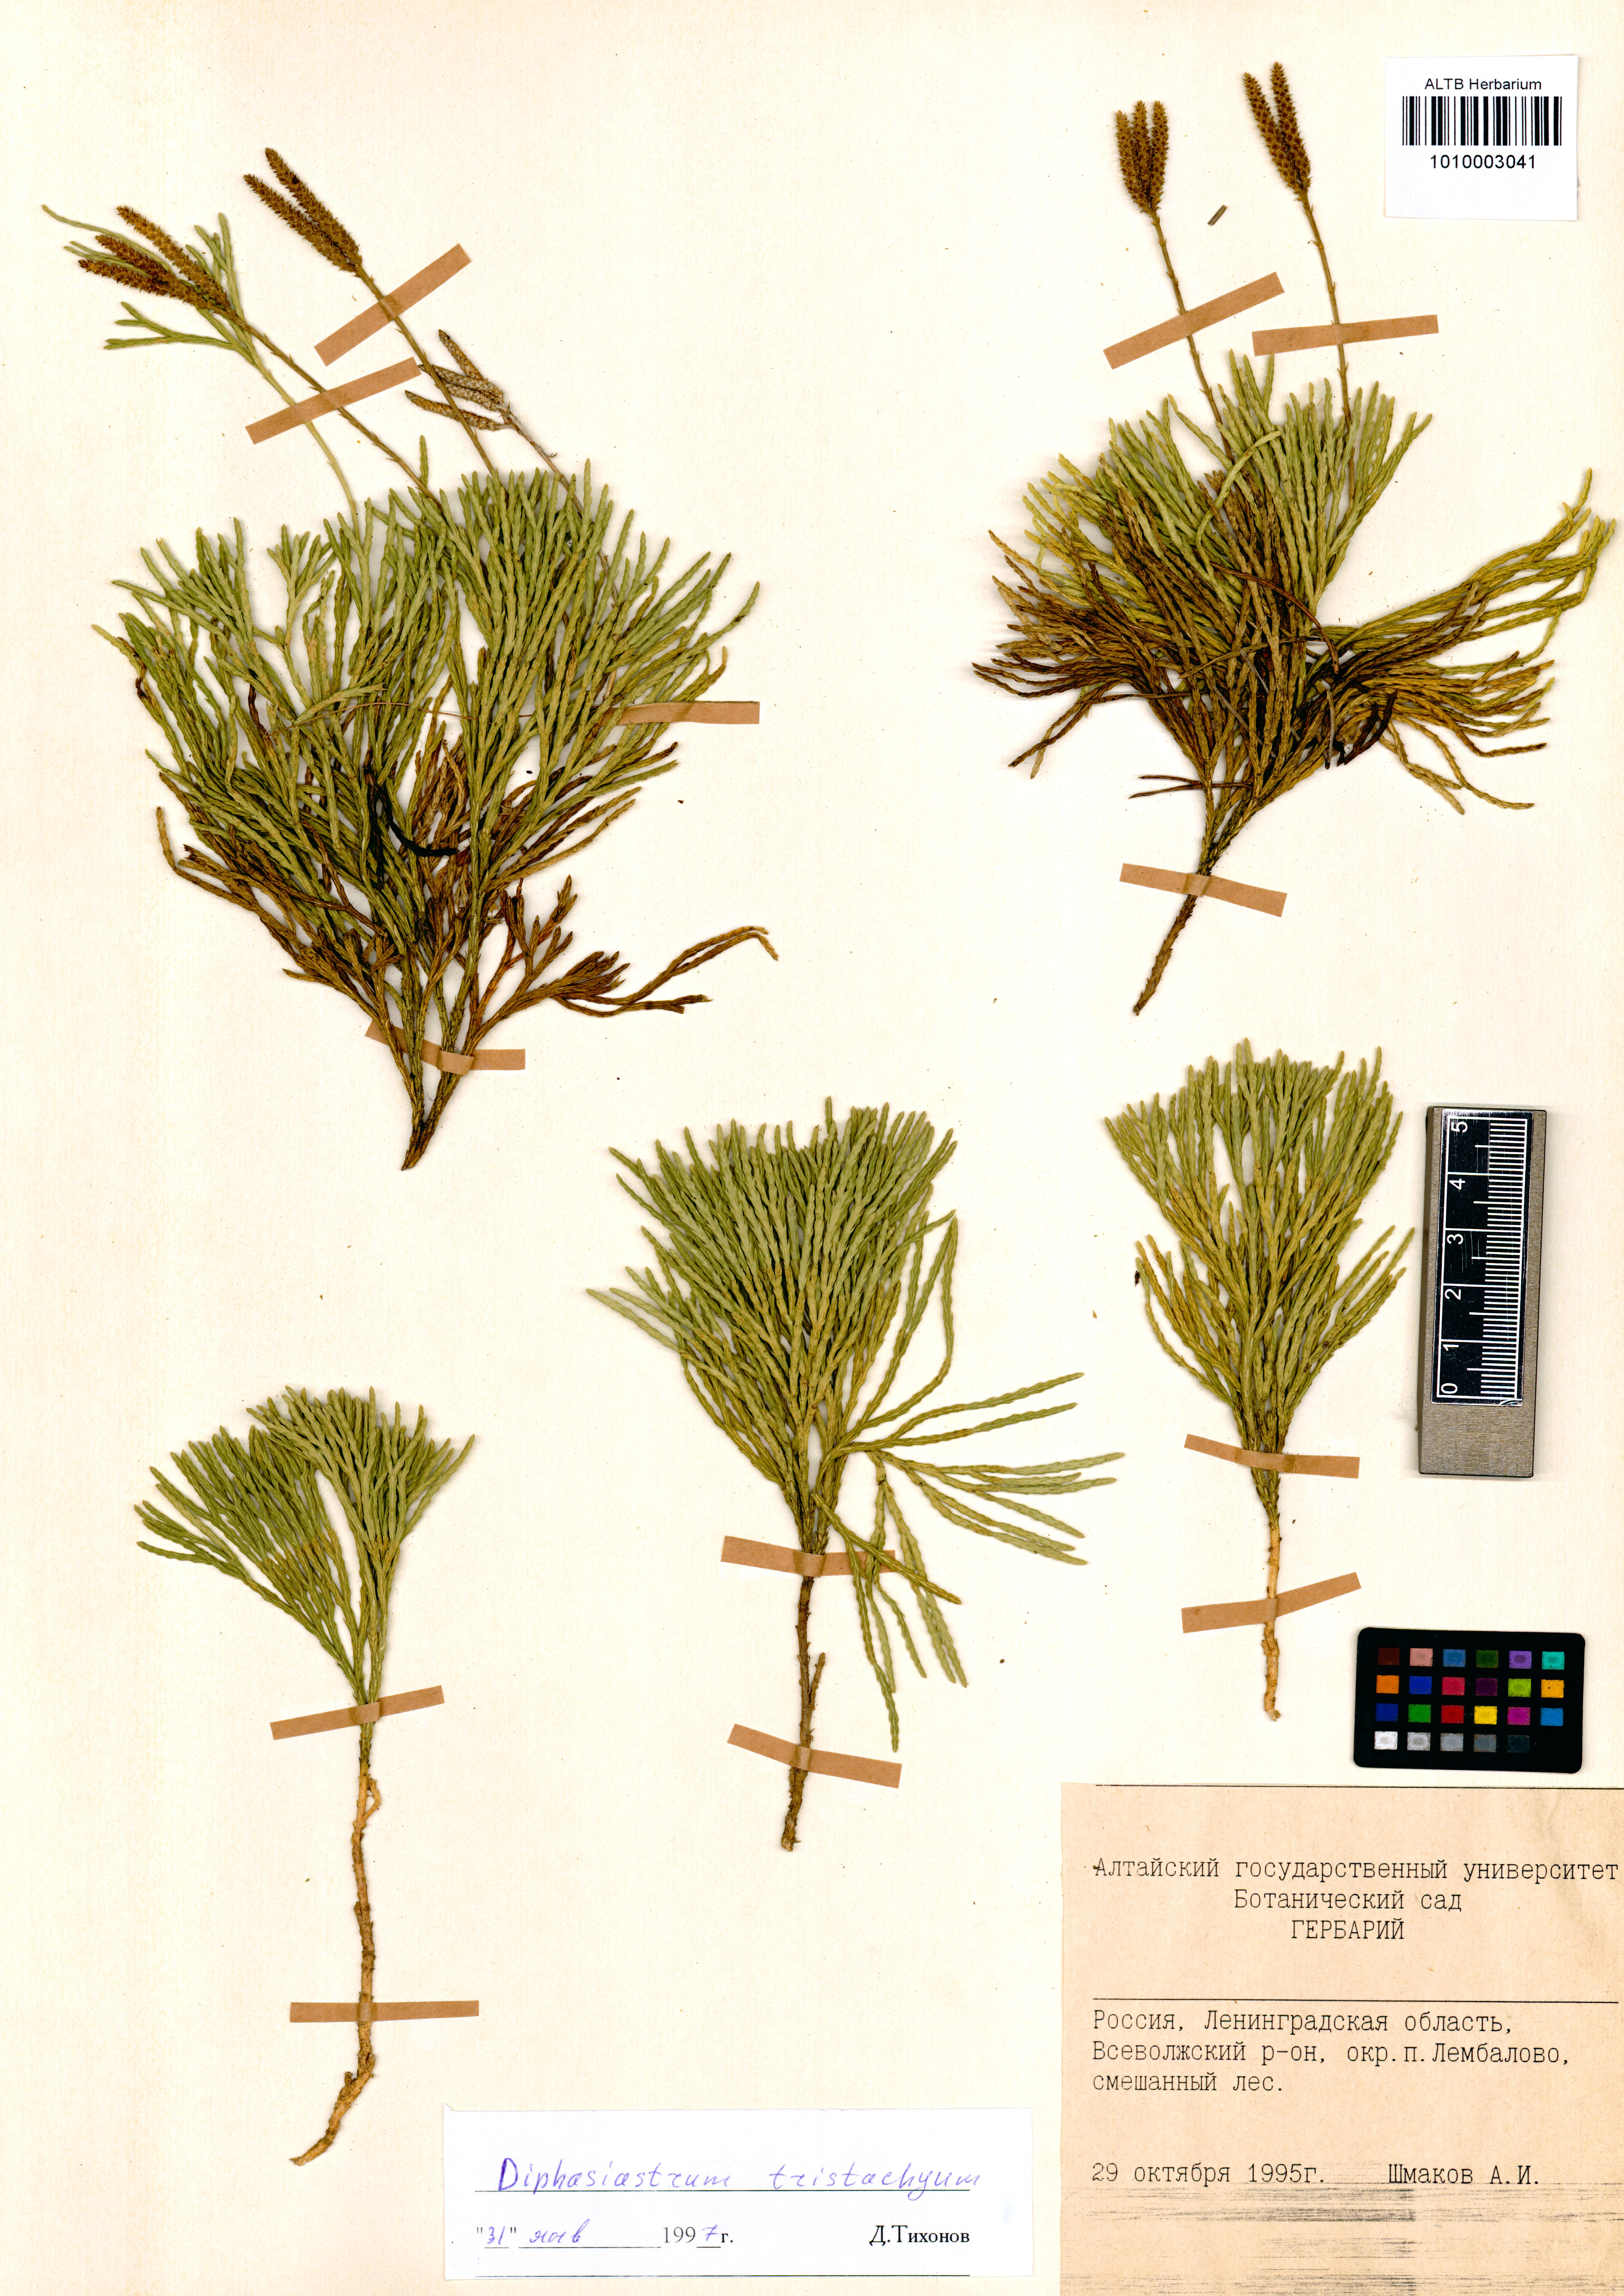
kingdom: Plantae
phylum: Tracheophyta
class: Polypodiopsida
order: Polypodiales
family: Dryopteridaceae
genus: Dryopteris
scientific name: Dryopteris filix-mas
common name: Male fern
